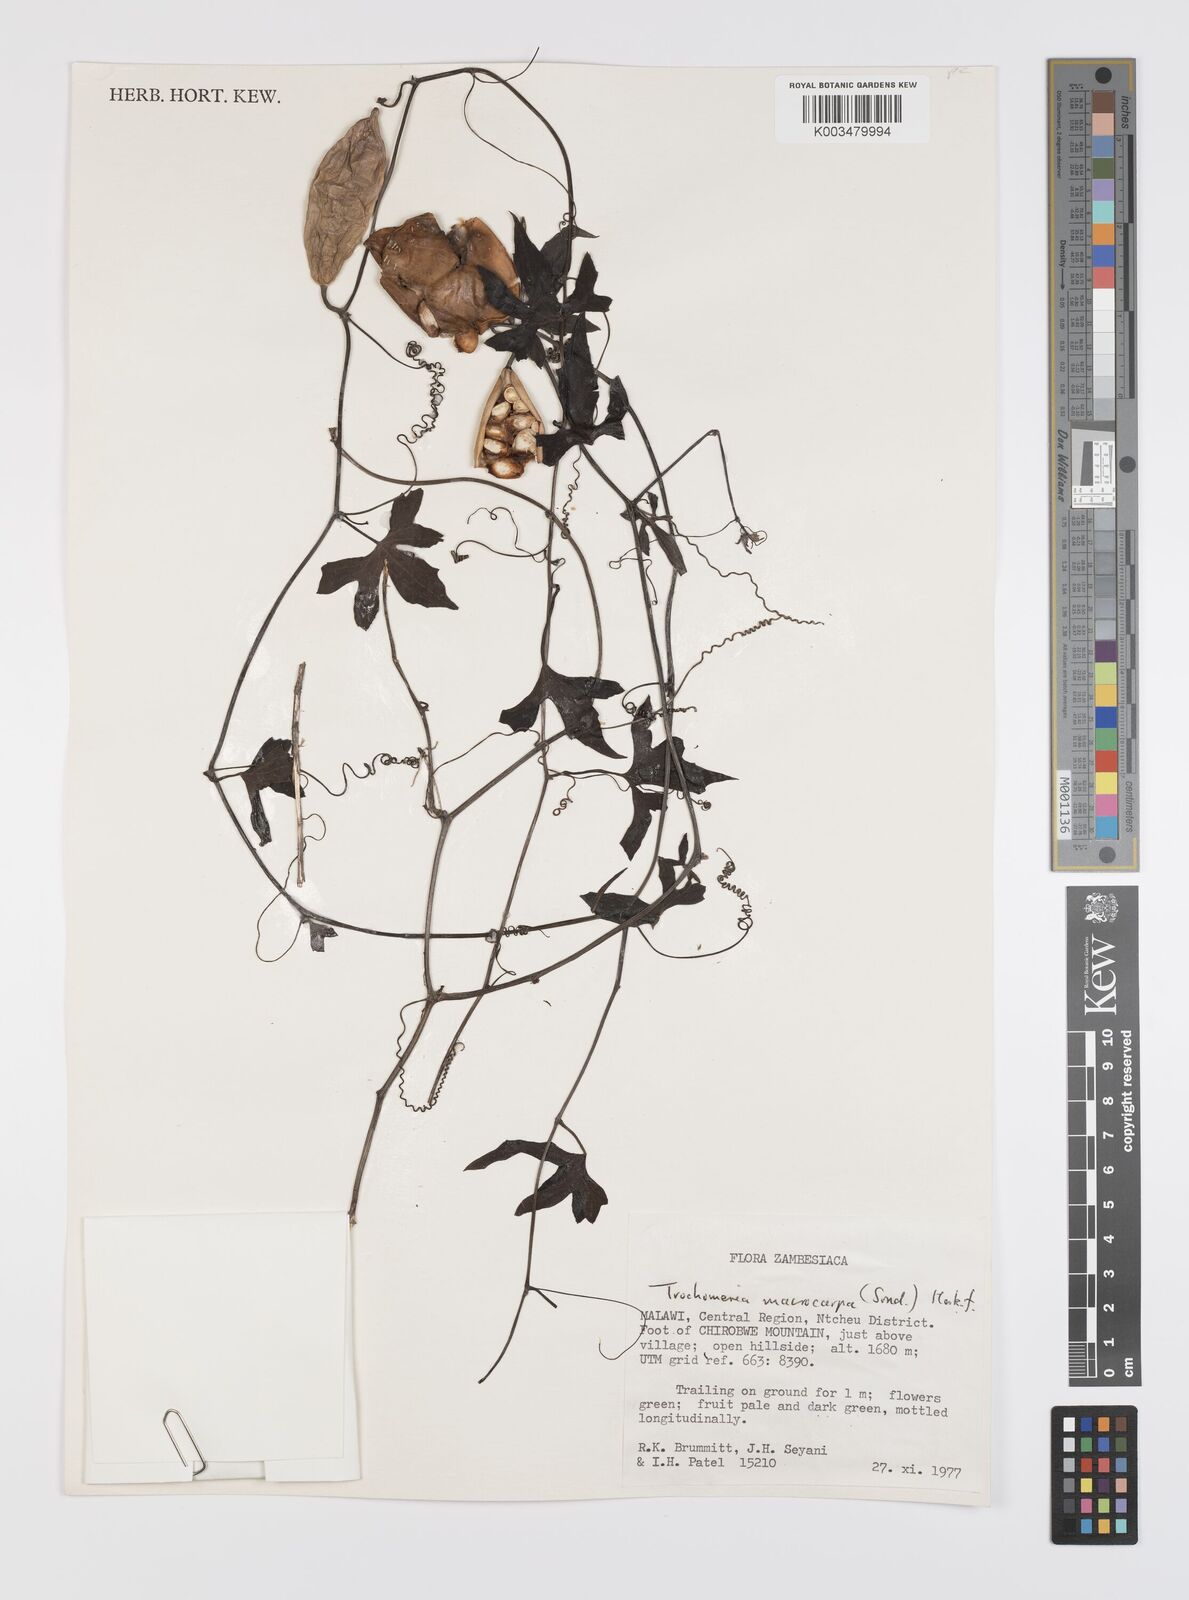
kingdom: Plantae
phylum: Tracheophyta
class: Magnoliopsida
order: Cucurbitales
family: Cucurbitaceae
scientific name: Cucurbitaceae
